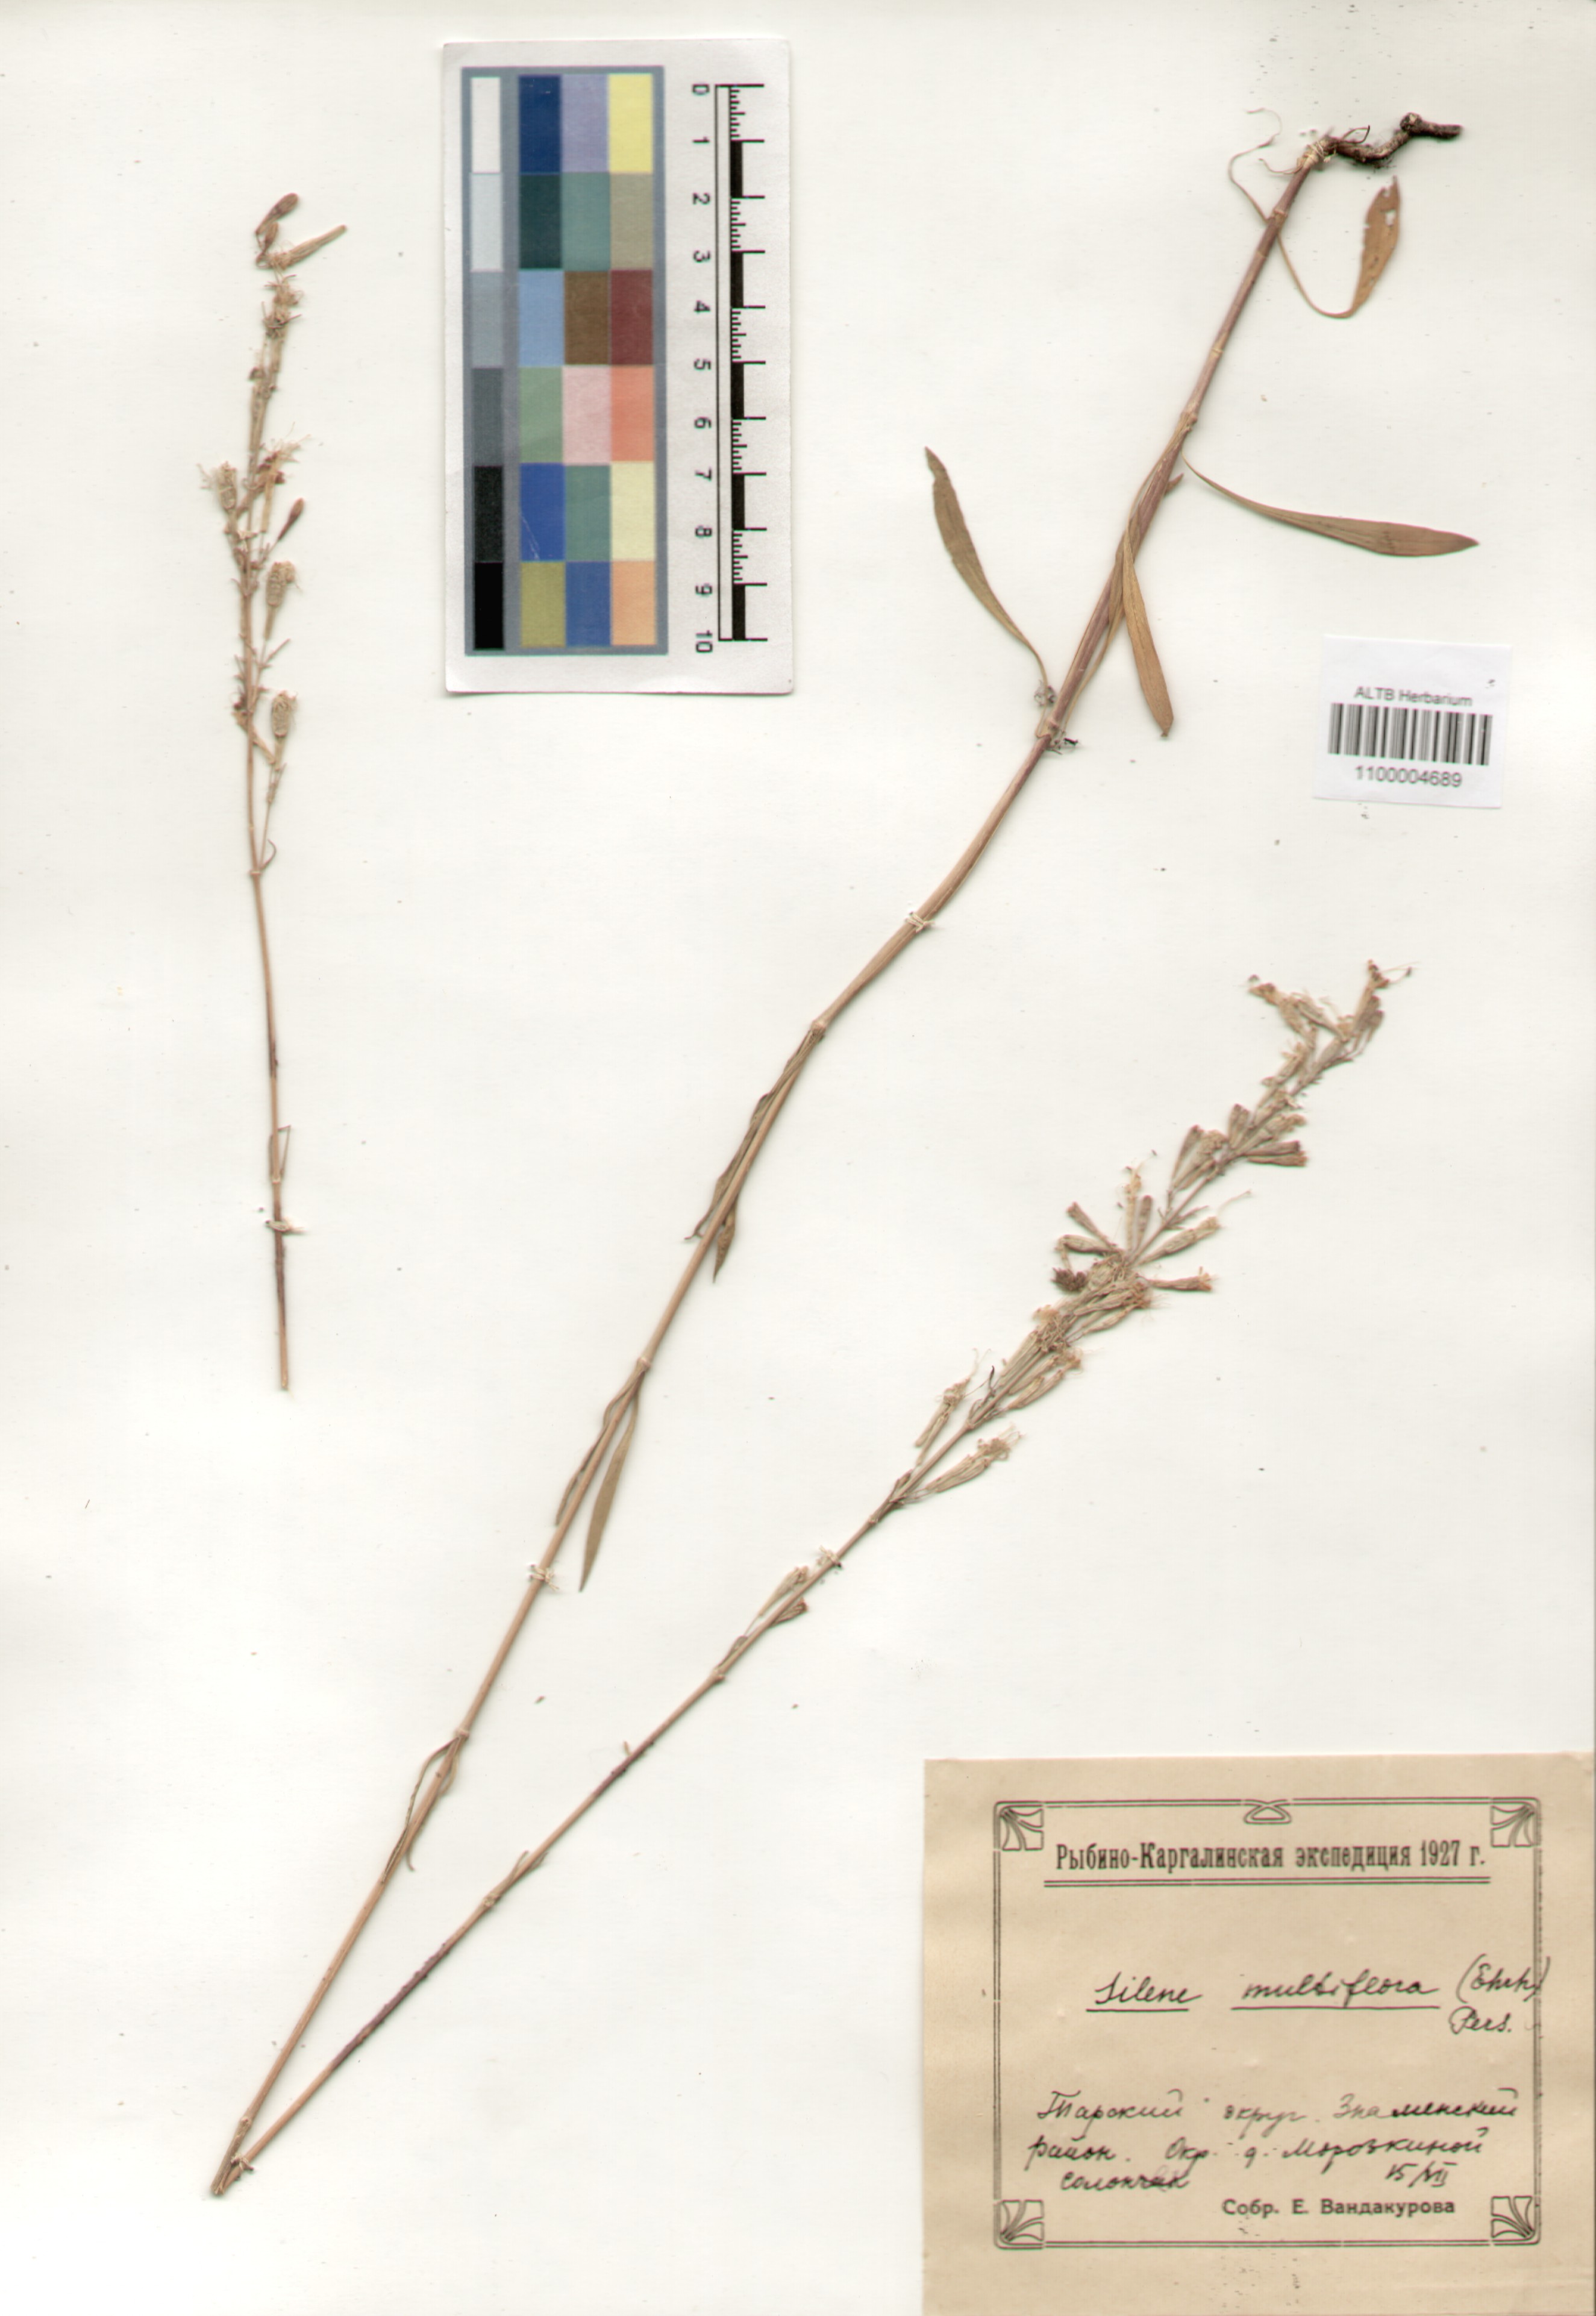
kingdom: Plantae
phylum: Tracheophyta
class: Magnoliopsida
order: Caryophyllales
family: Caryophyllaceae
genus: Silene
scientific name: Silene multiflora
